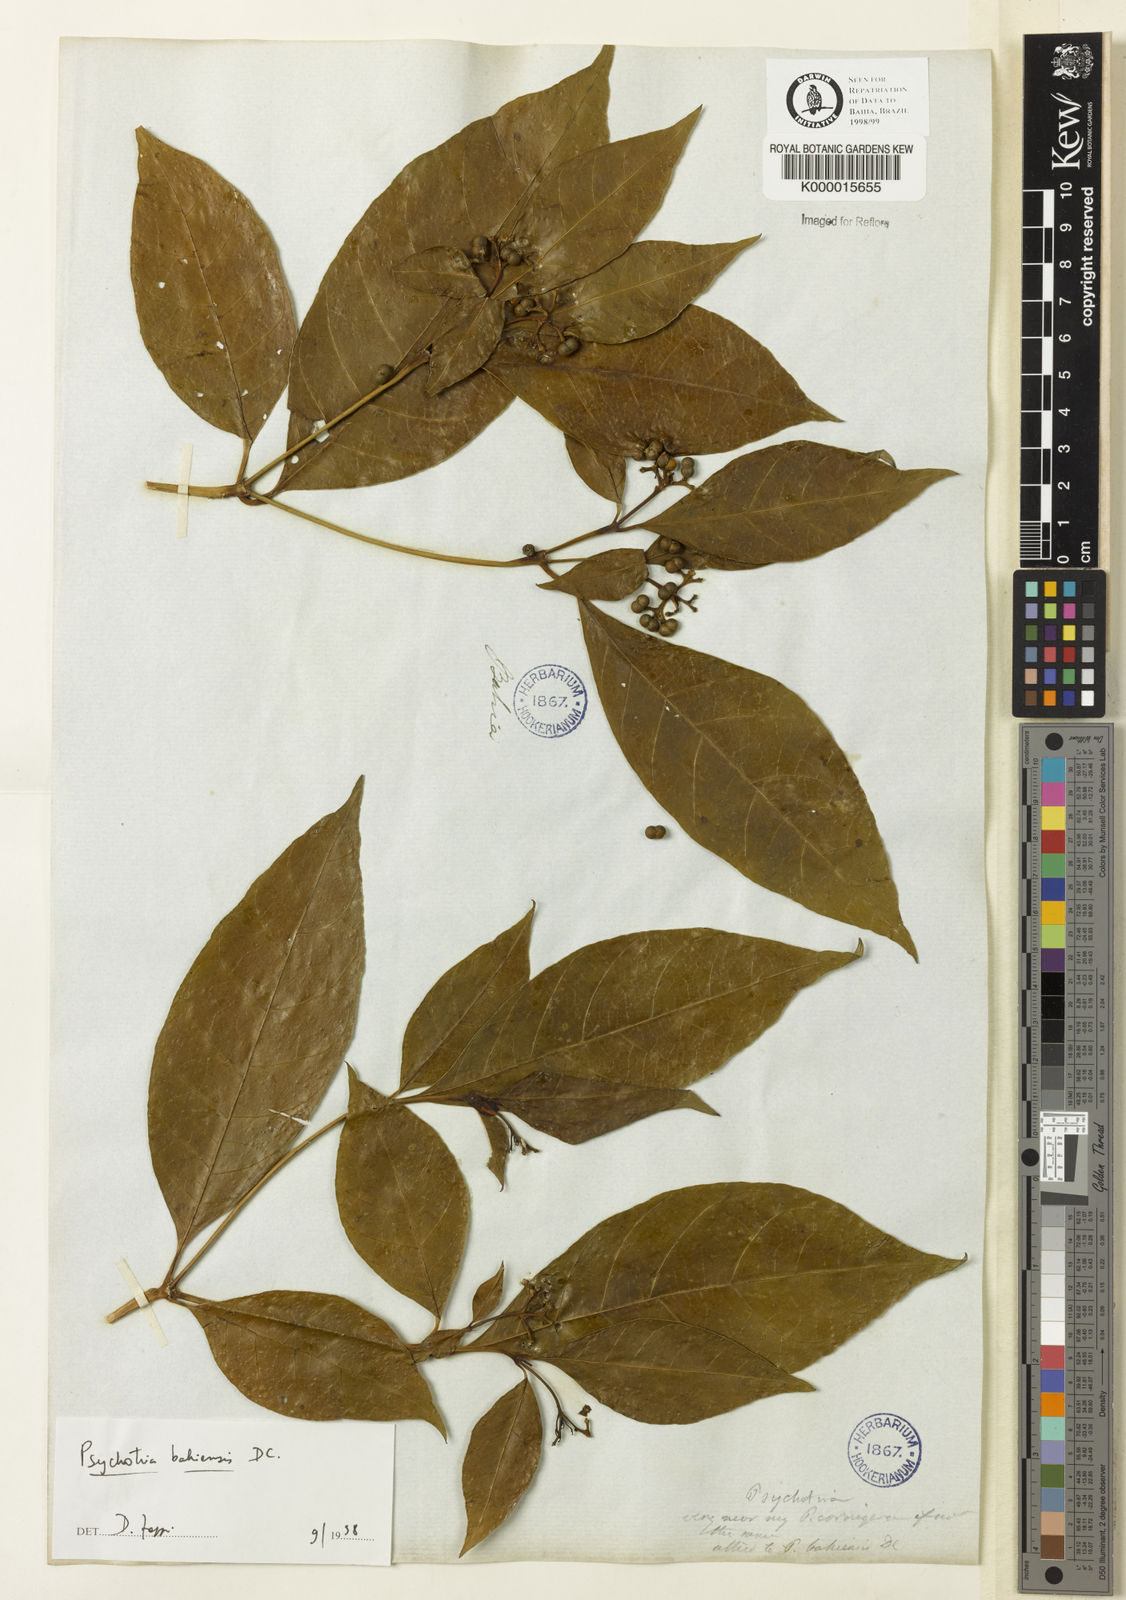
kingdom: Plantae
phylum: Tracheophyta
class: Magnoliopsida
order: Gentianales
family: Rubiaceae
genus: Psychotria
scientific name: Psychotria bahiensis
